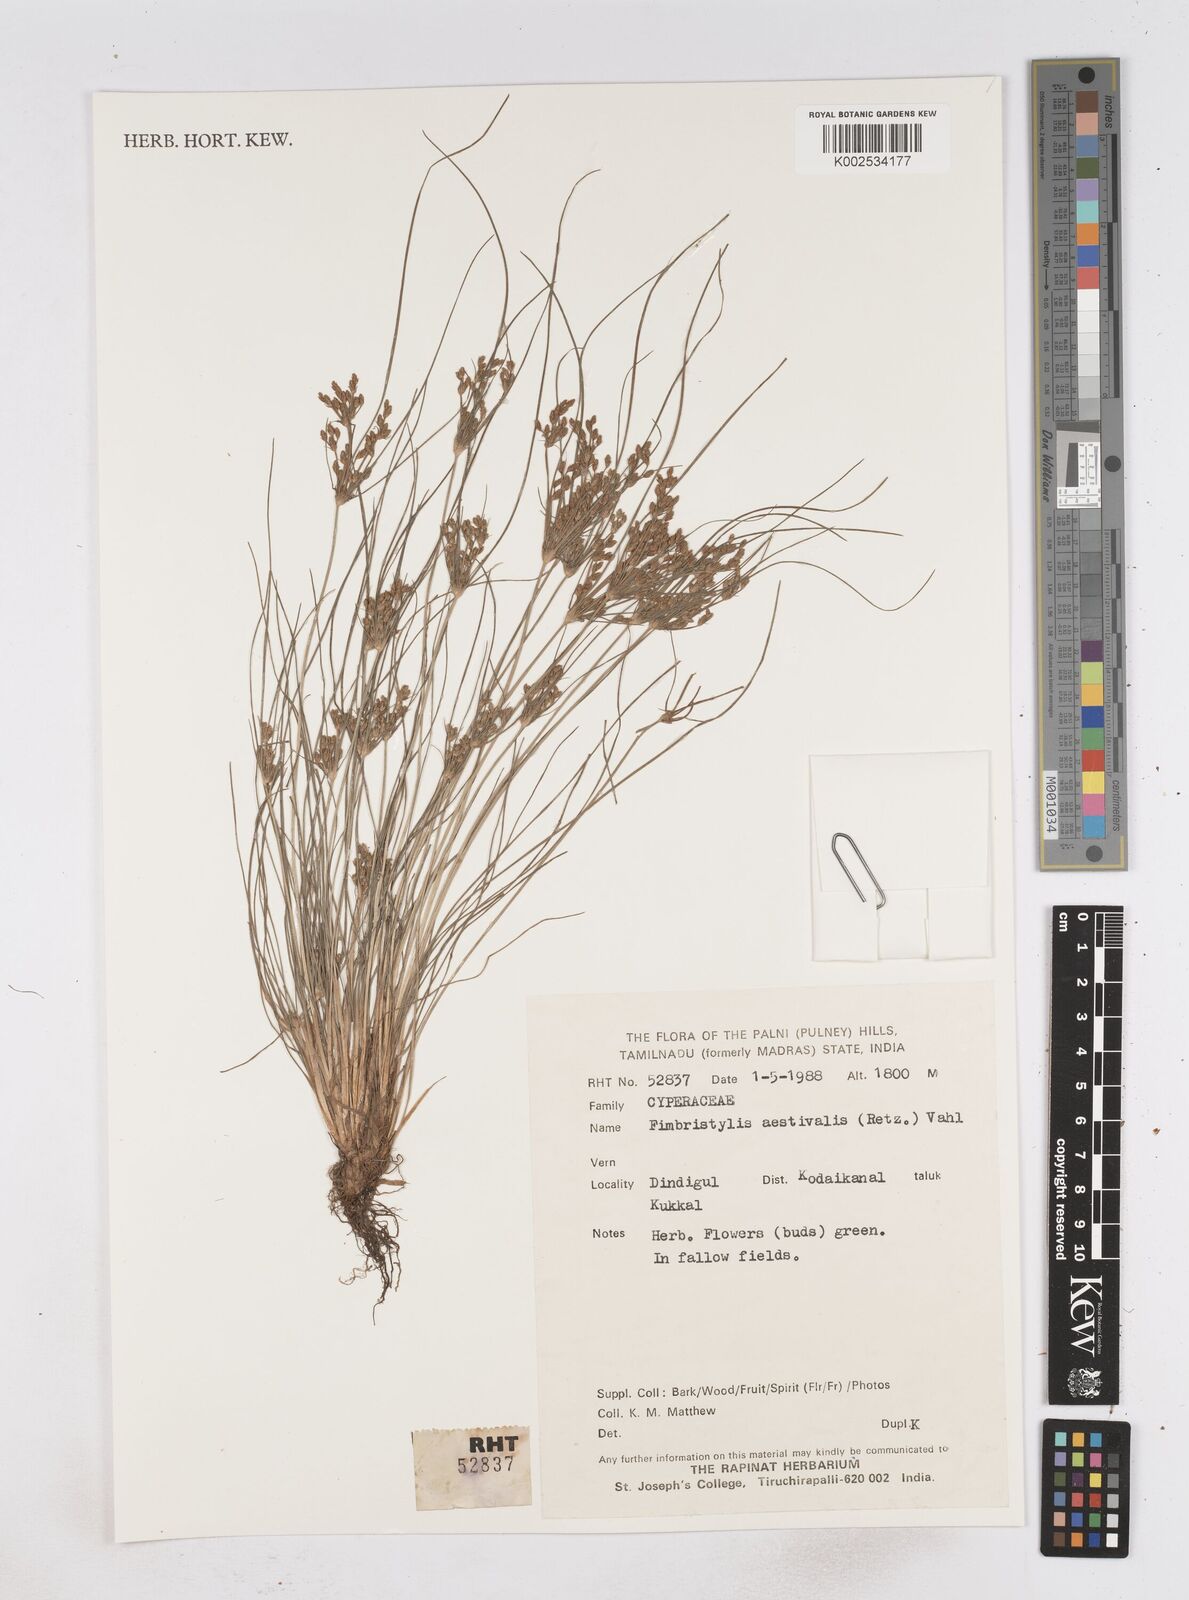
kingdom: Plantae
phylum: Tracheophyta
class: Liliopsida
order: Poales
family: Cyperaceae
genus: Fimbristylis
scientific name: Fimbristylis aestivalis
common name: Summer fimbry
